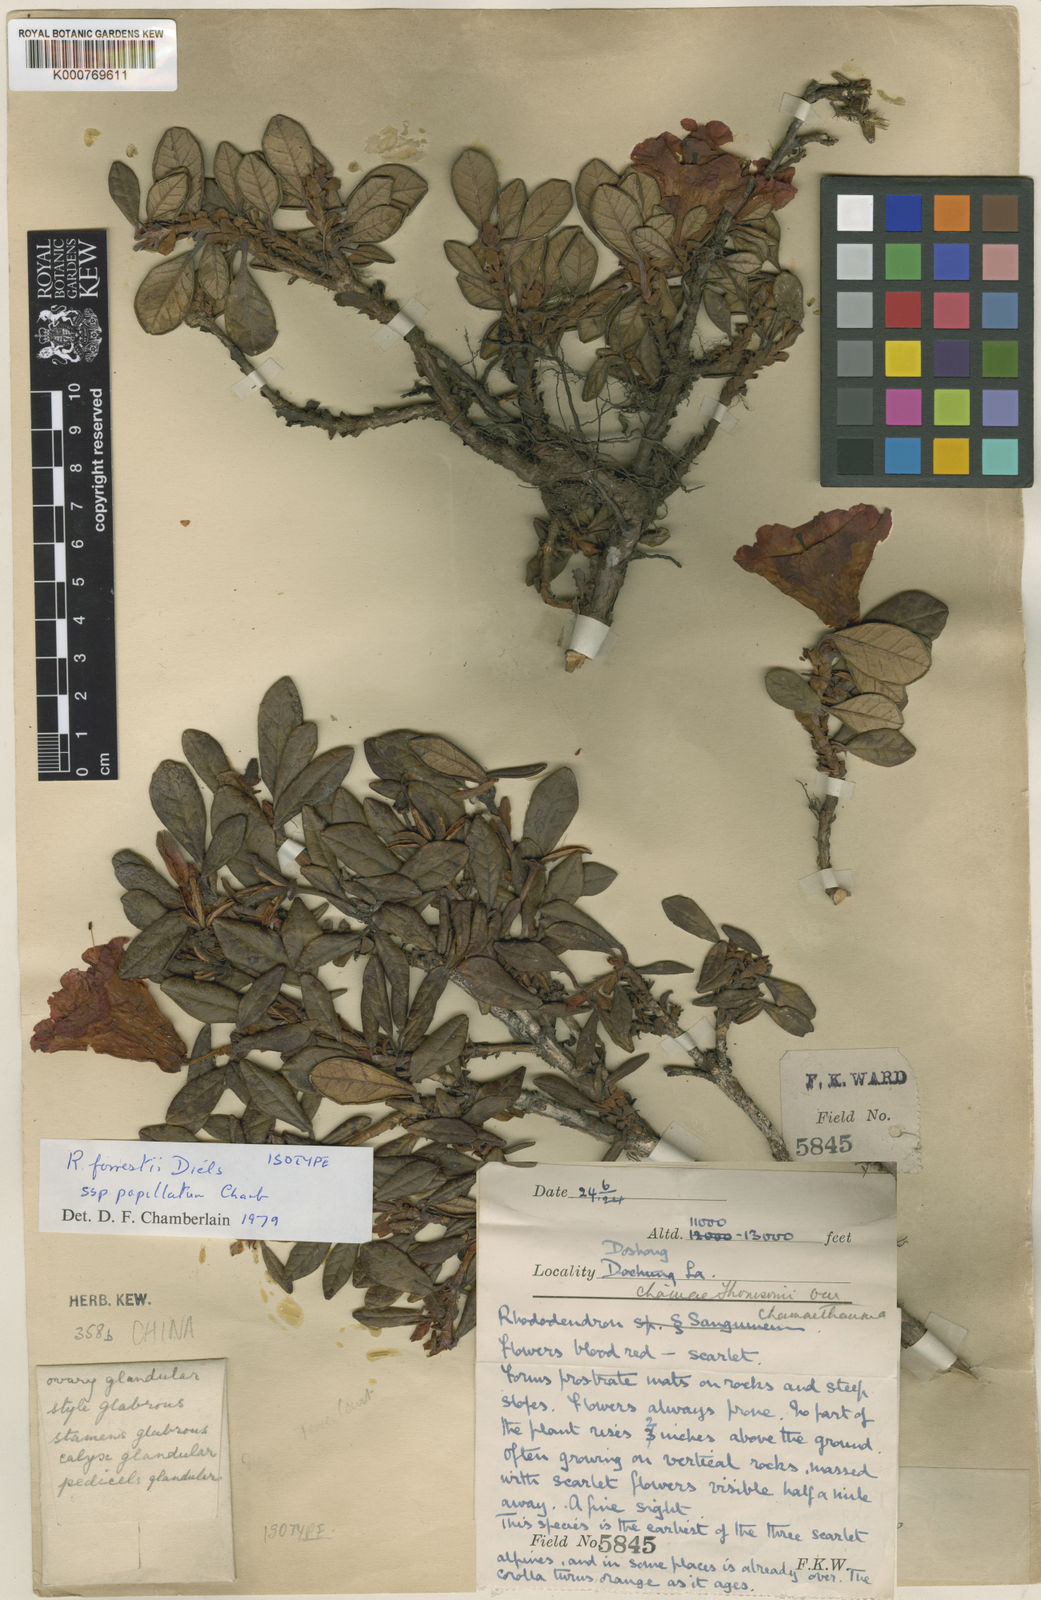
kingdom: Plantae
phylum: Tracheophyta
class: Magnoliopsida
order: Ericales
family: Ericaceae
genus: Rhododendron
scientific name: Rhododendron forrestii
